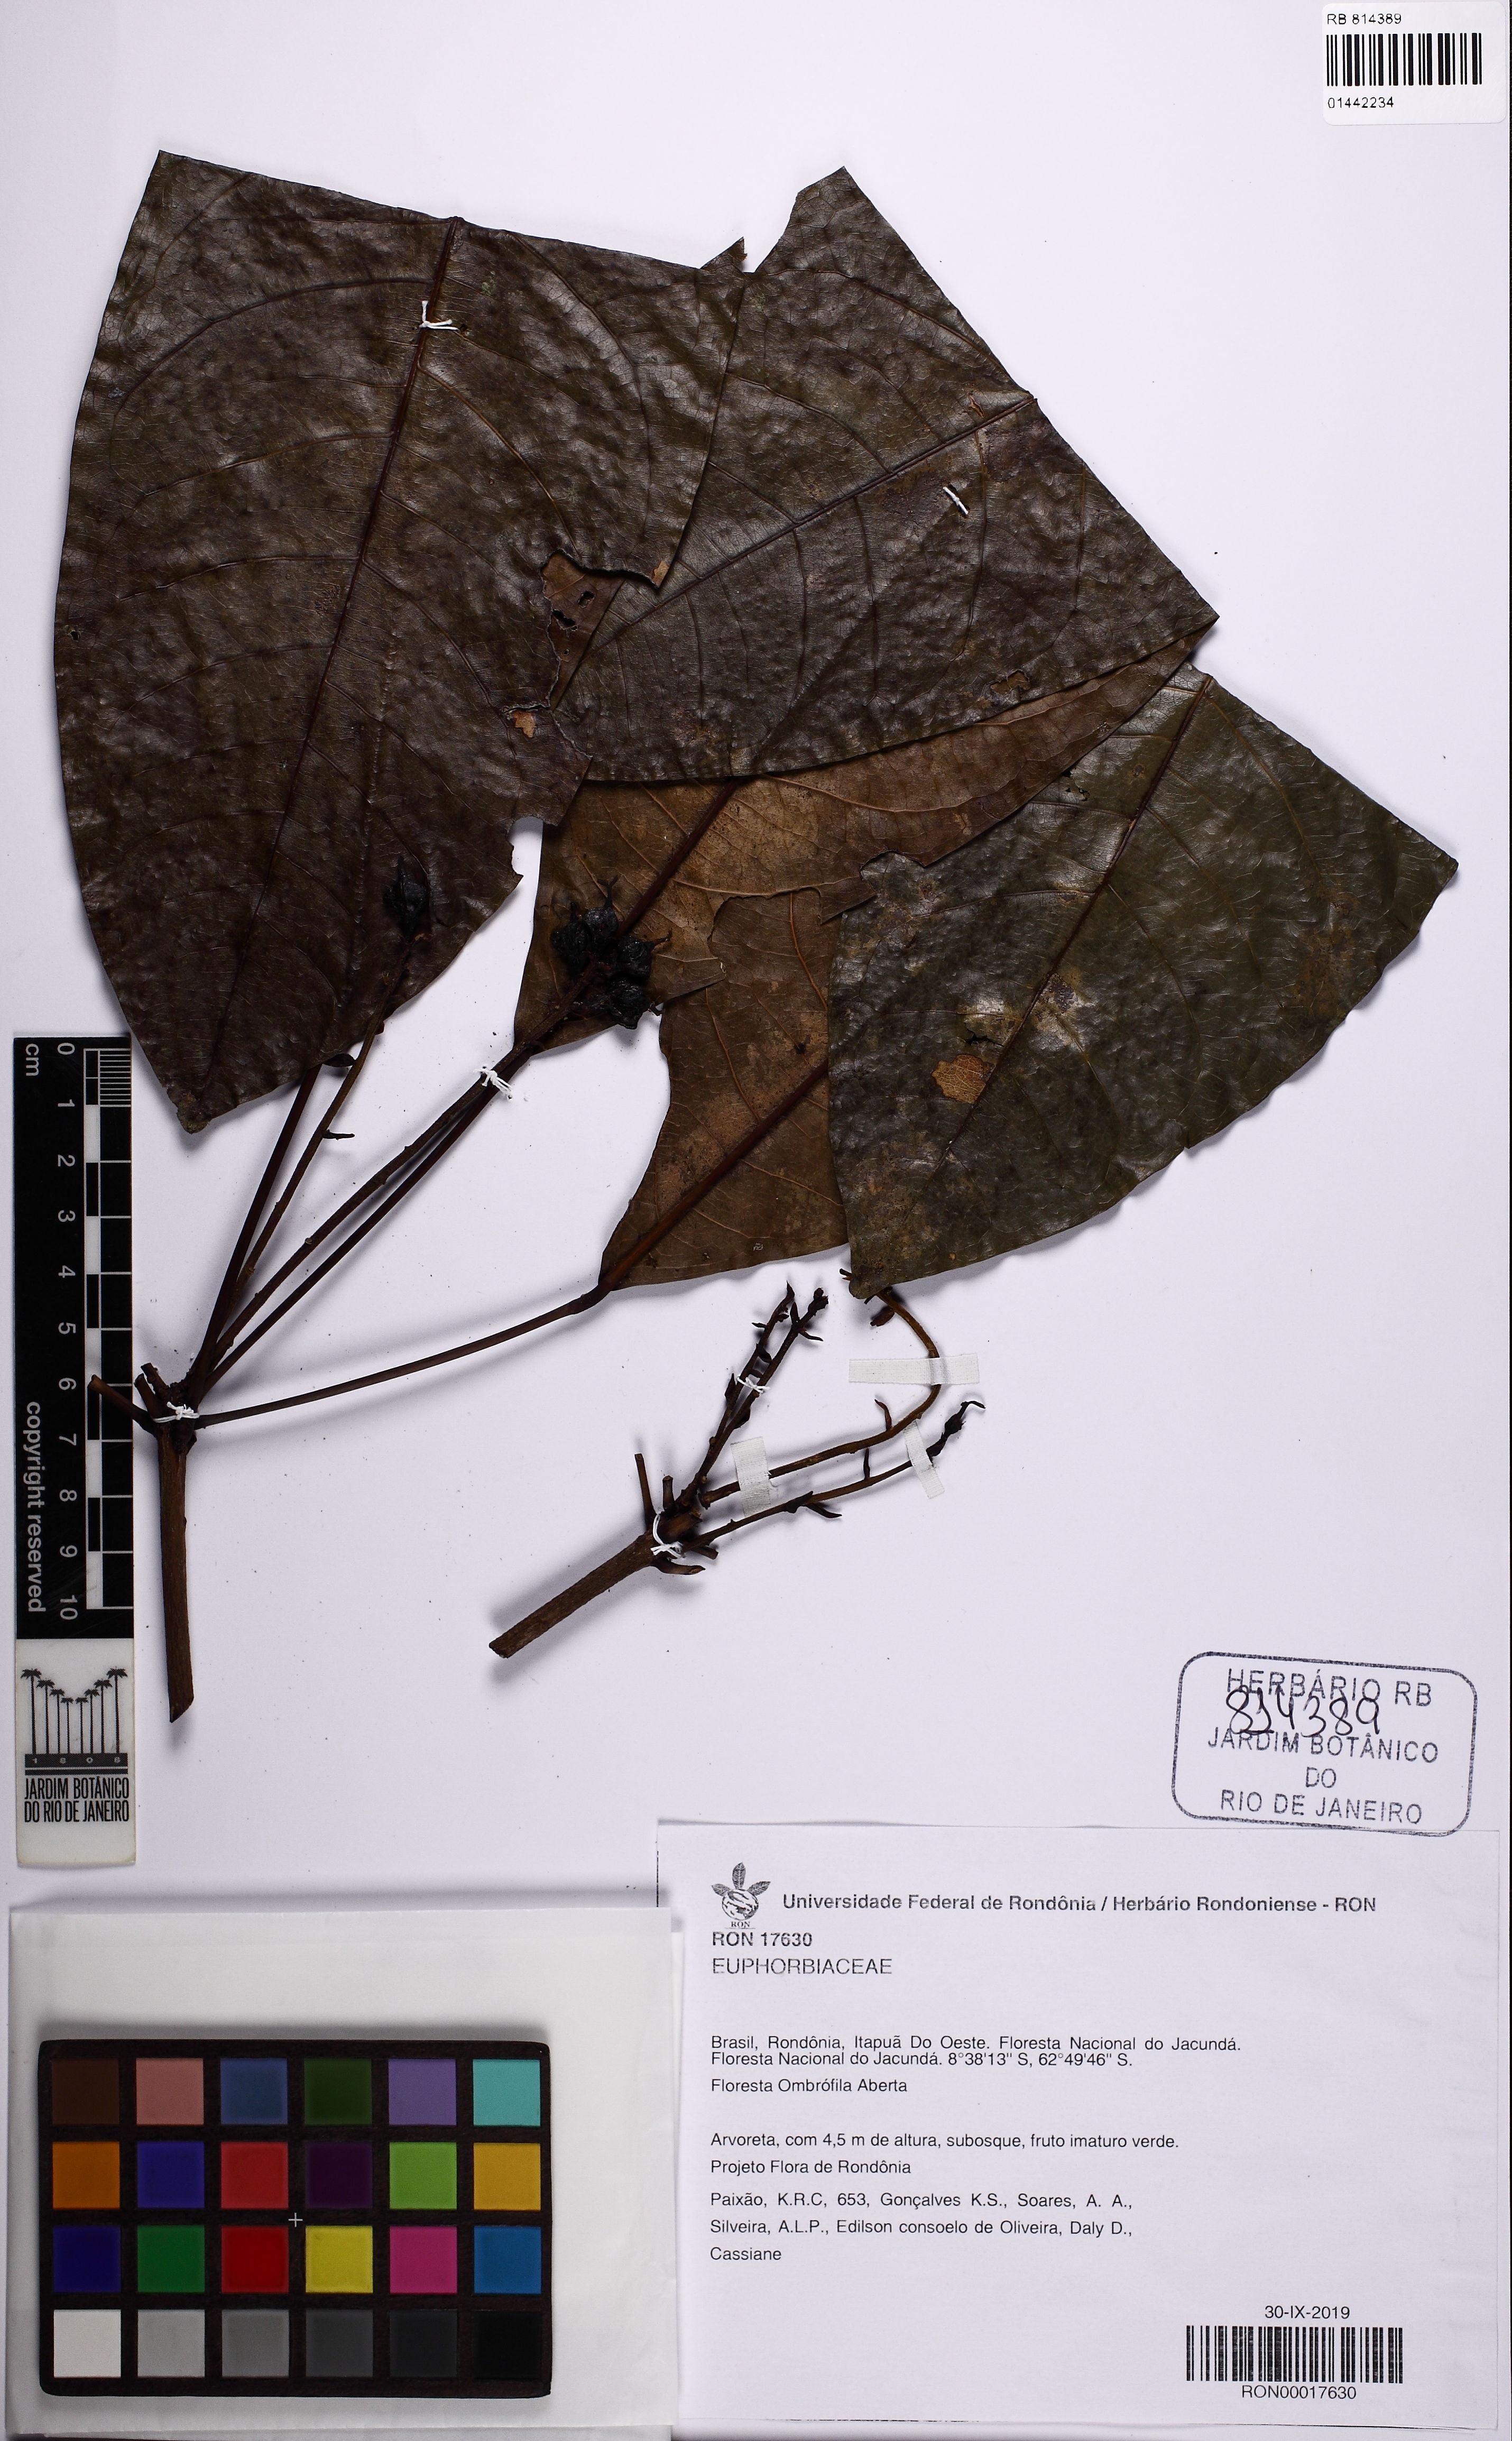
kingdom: Plantae
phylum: Tracheophyta
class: Magnoliopsida
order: Malpighiales
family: Euphorbiaceae
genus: Pseudosenefeldera
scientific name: Pseudosenefeldera inclinata
